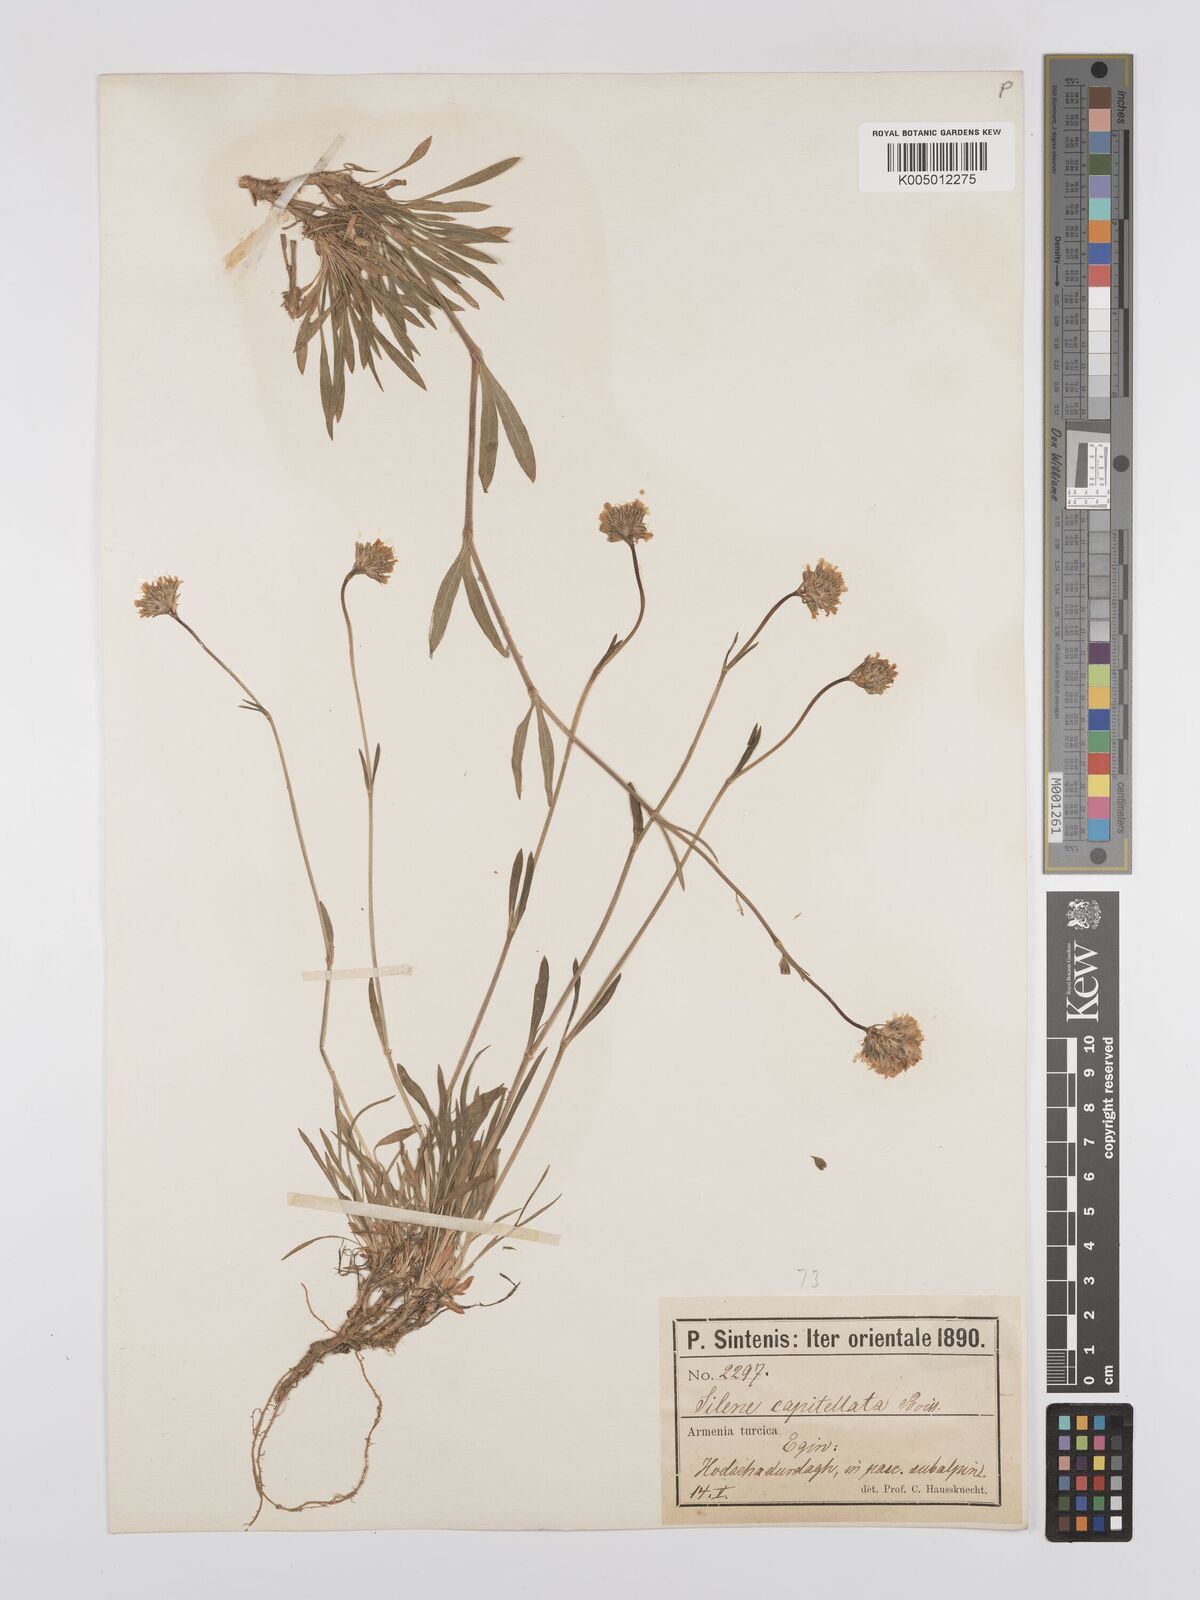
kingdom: Plantae
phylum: Tracheophyta
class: Magnoliopsida
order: Caryophyllales
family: Caryophyllaceae
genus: Silene
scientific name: Silene capitellata
